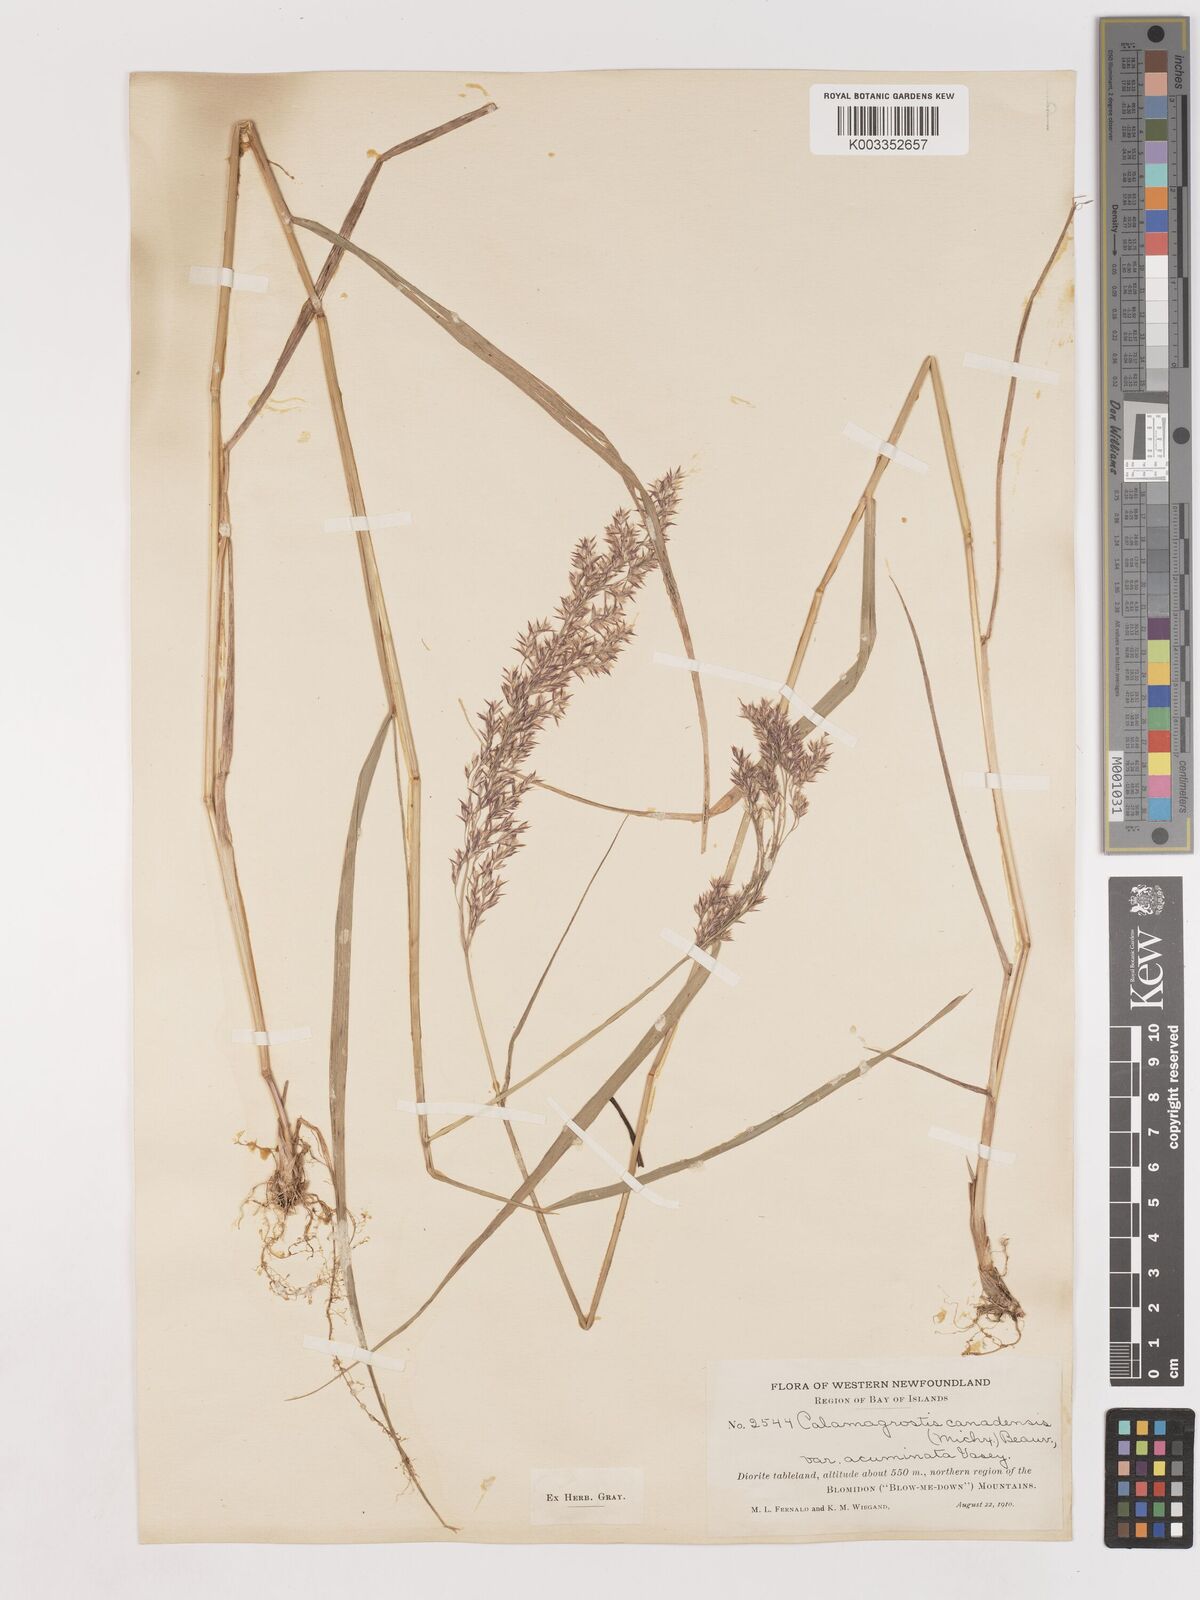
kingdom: Plantae
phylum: Tracheophyta
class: Liliopsida
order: Poales
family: Poaceae
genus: Calamagrostis
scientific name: Calamagrostis canadensis
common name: Canada bluejoint
